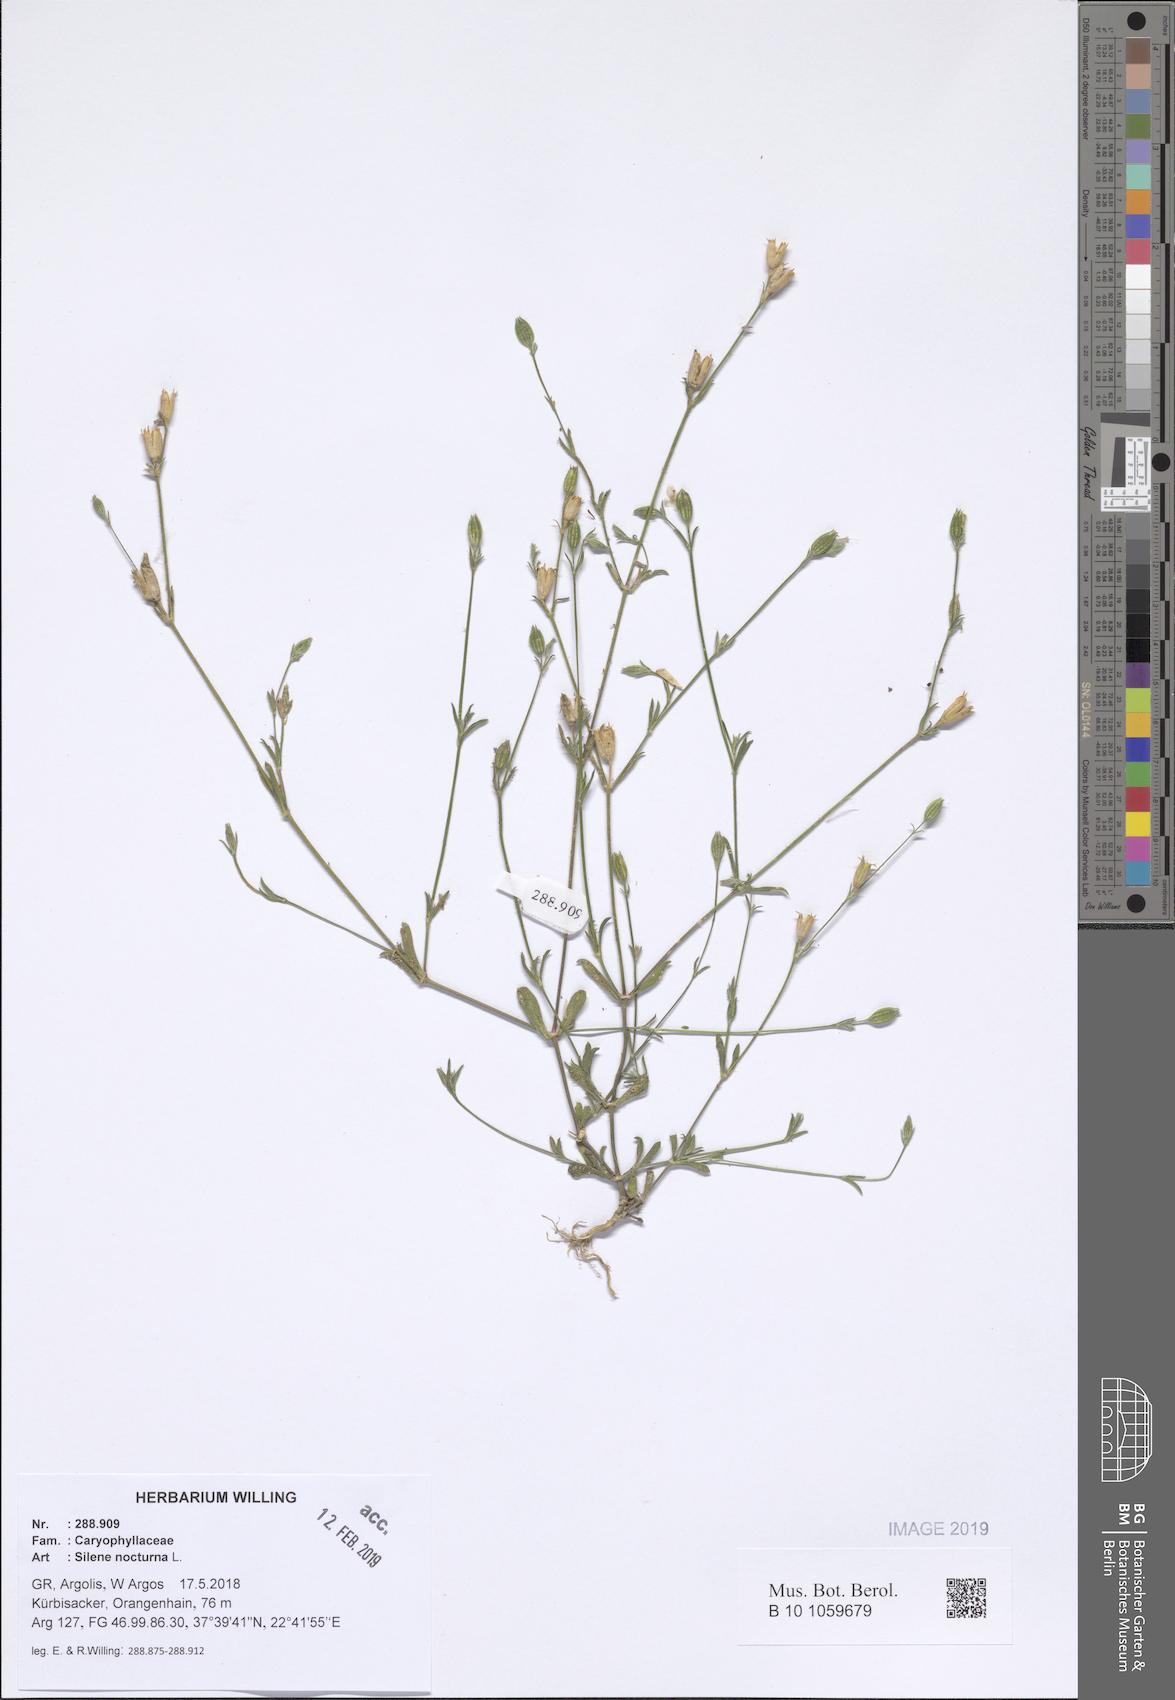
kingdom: Plantae
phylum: Tracheophyta
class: Magnoliopsida
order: Caryophyllales
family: Caryophyllaceae
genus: Silene
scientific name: Silene nocturna
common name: Mediterranean catchfly
